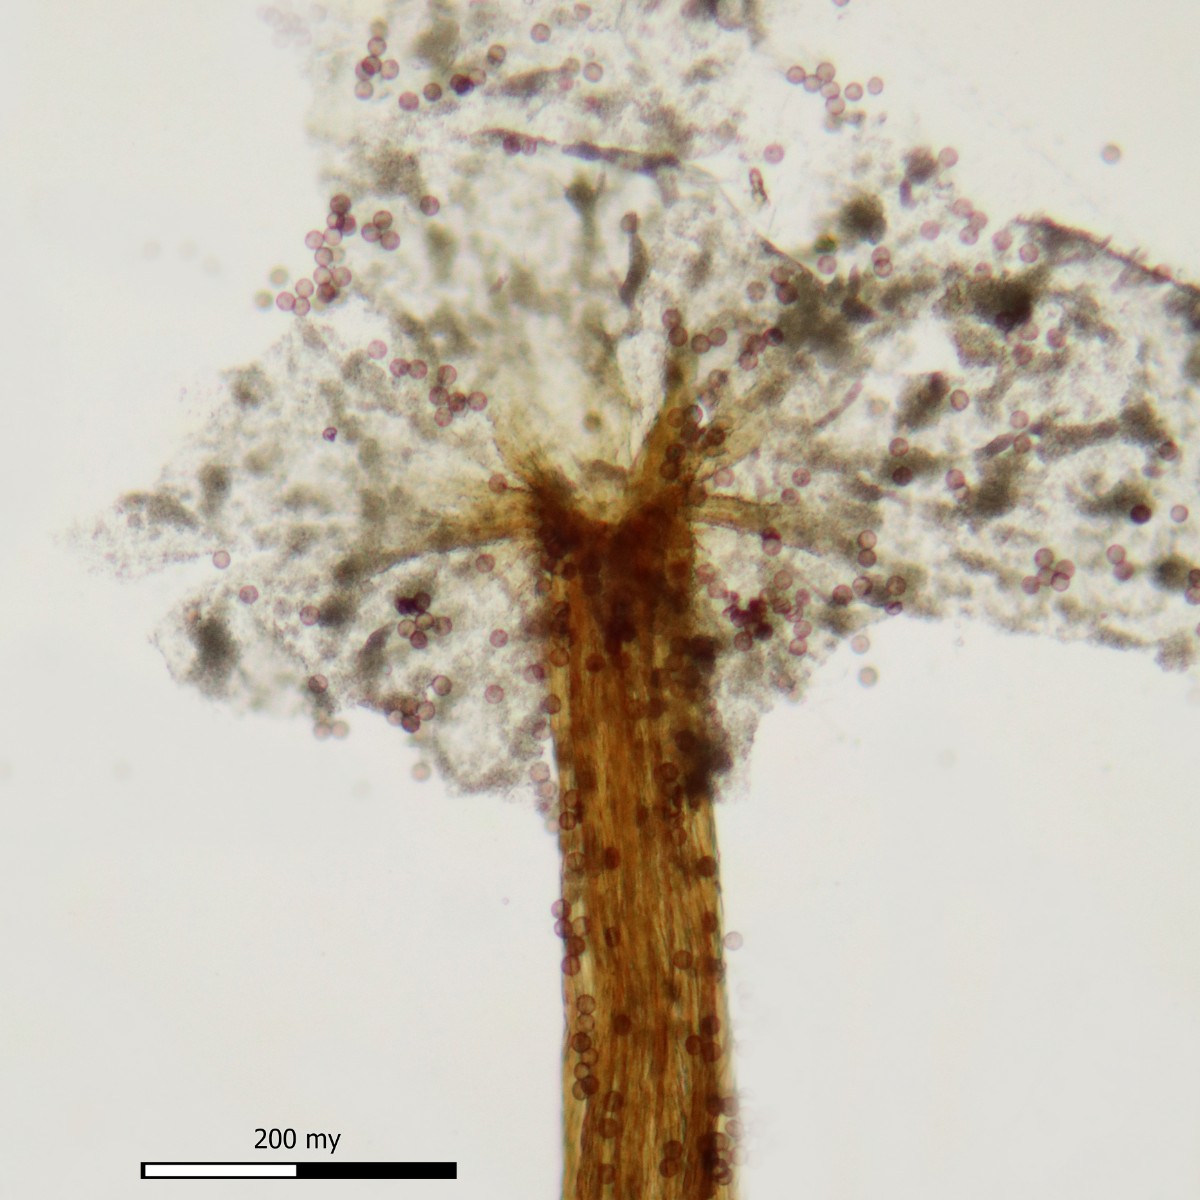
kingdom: Protozoa
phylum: Mycetozoa
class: Myxomycetes
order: Physarales
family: Physaraceae
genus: Physarum
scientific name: Physarum pusillum
